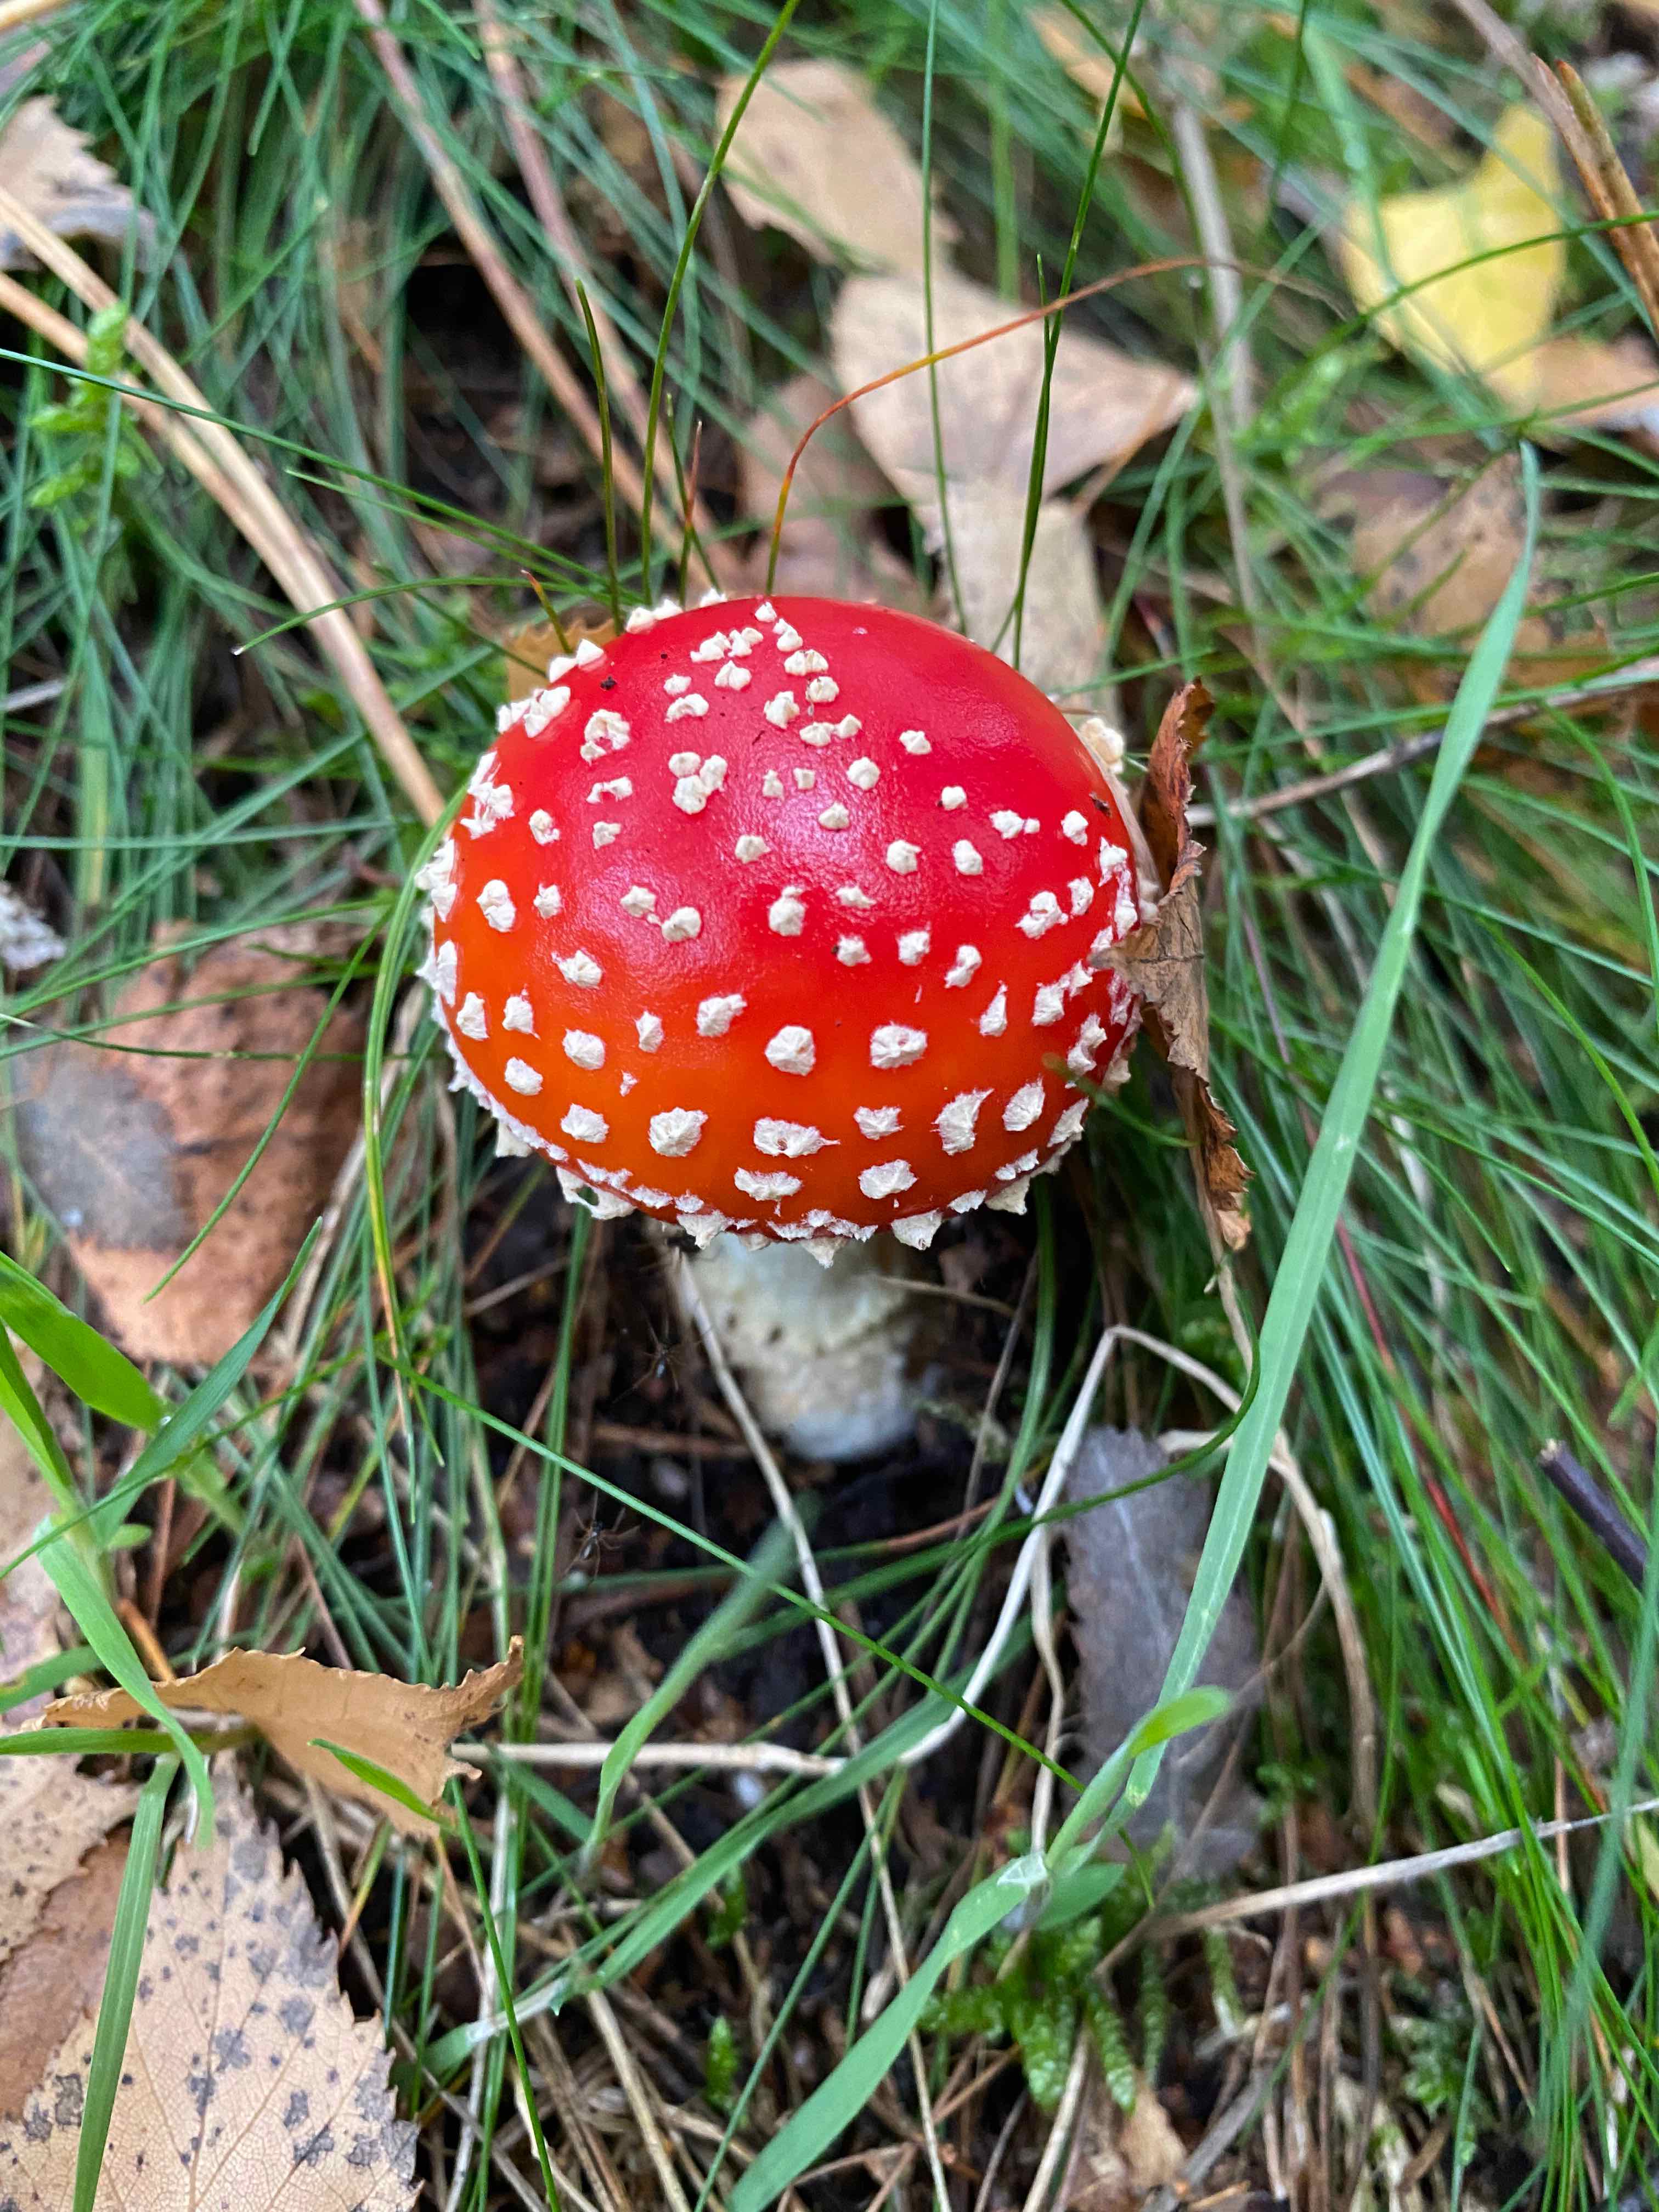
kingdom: Fungi
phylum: Basidiomycota
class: Agaricomycetes
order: Agaricales
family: Amanitaceae
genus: Amanita
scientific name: Amanita muscaria
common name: rød fluesvamp
